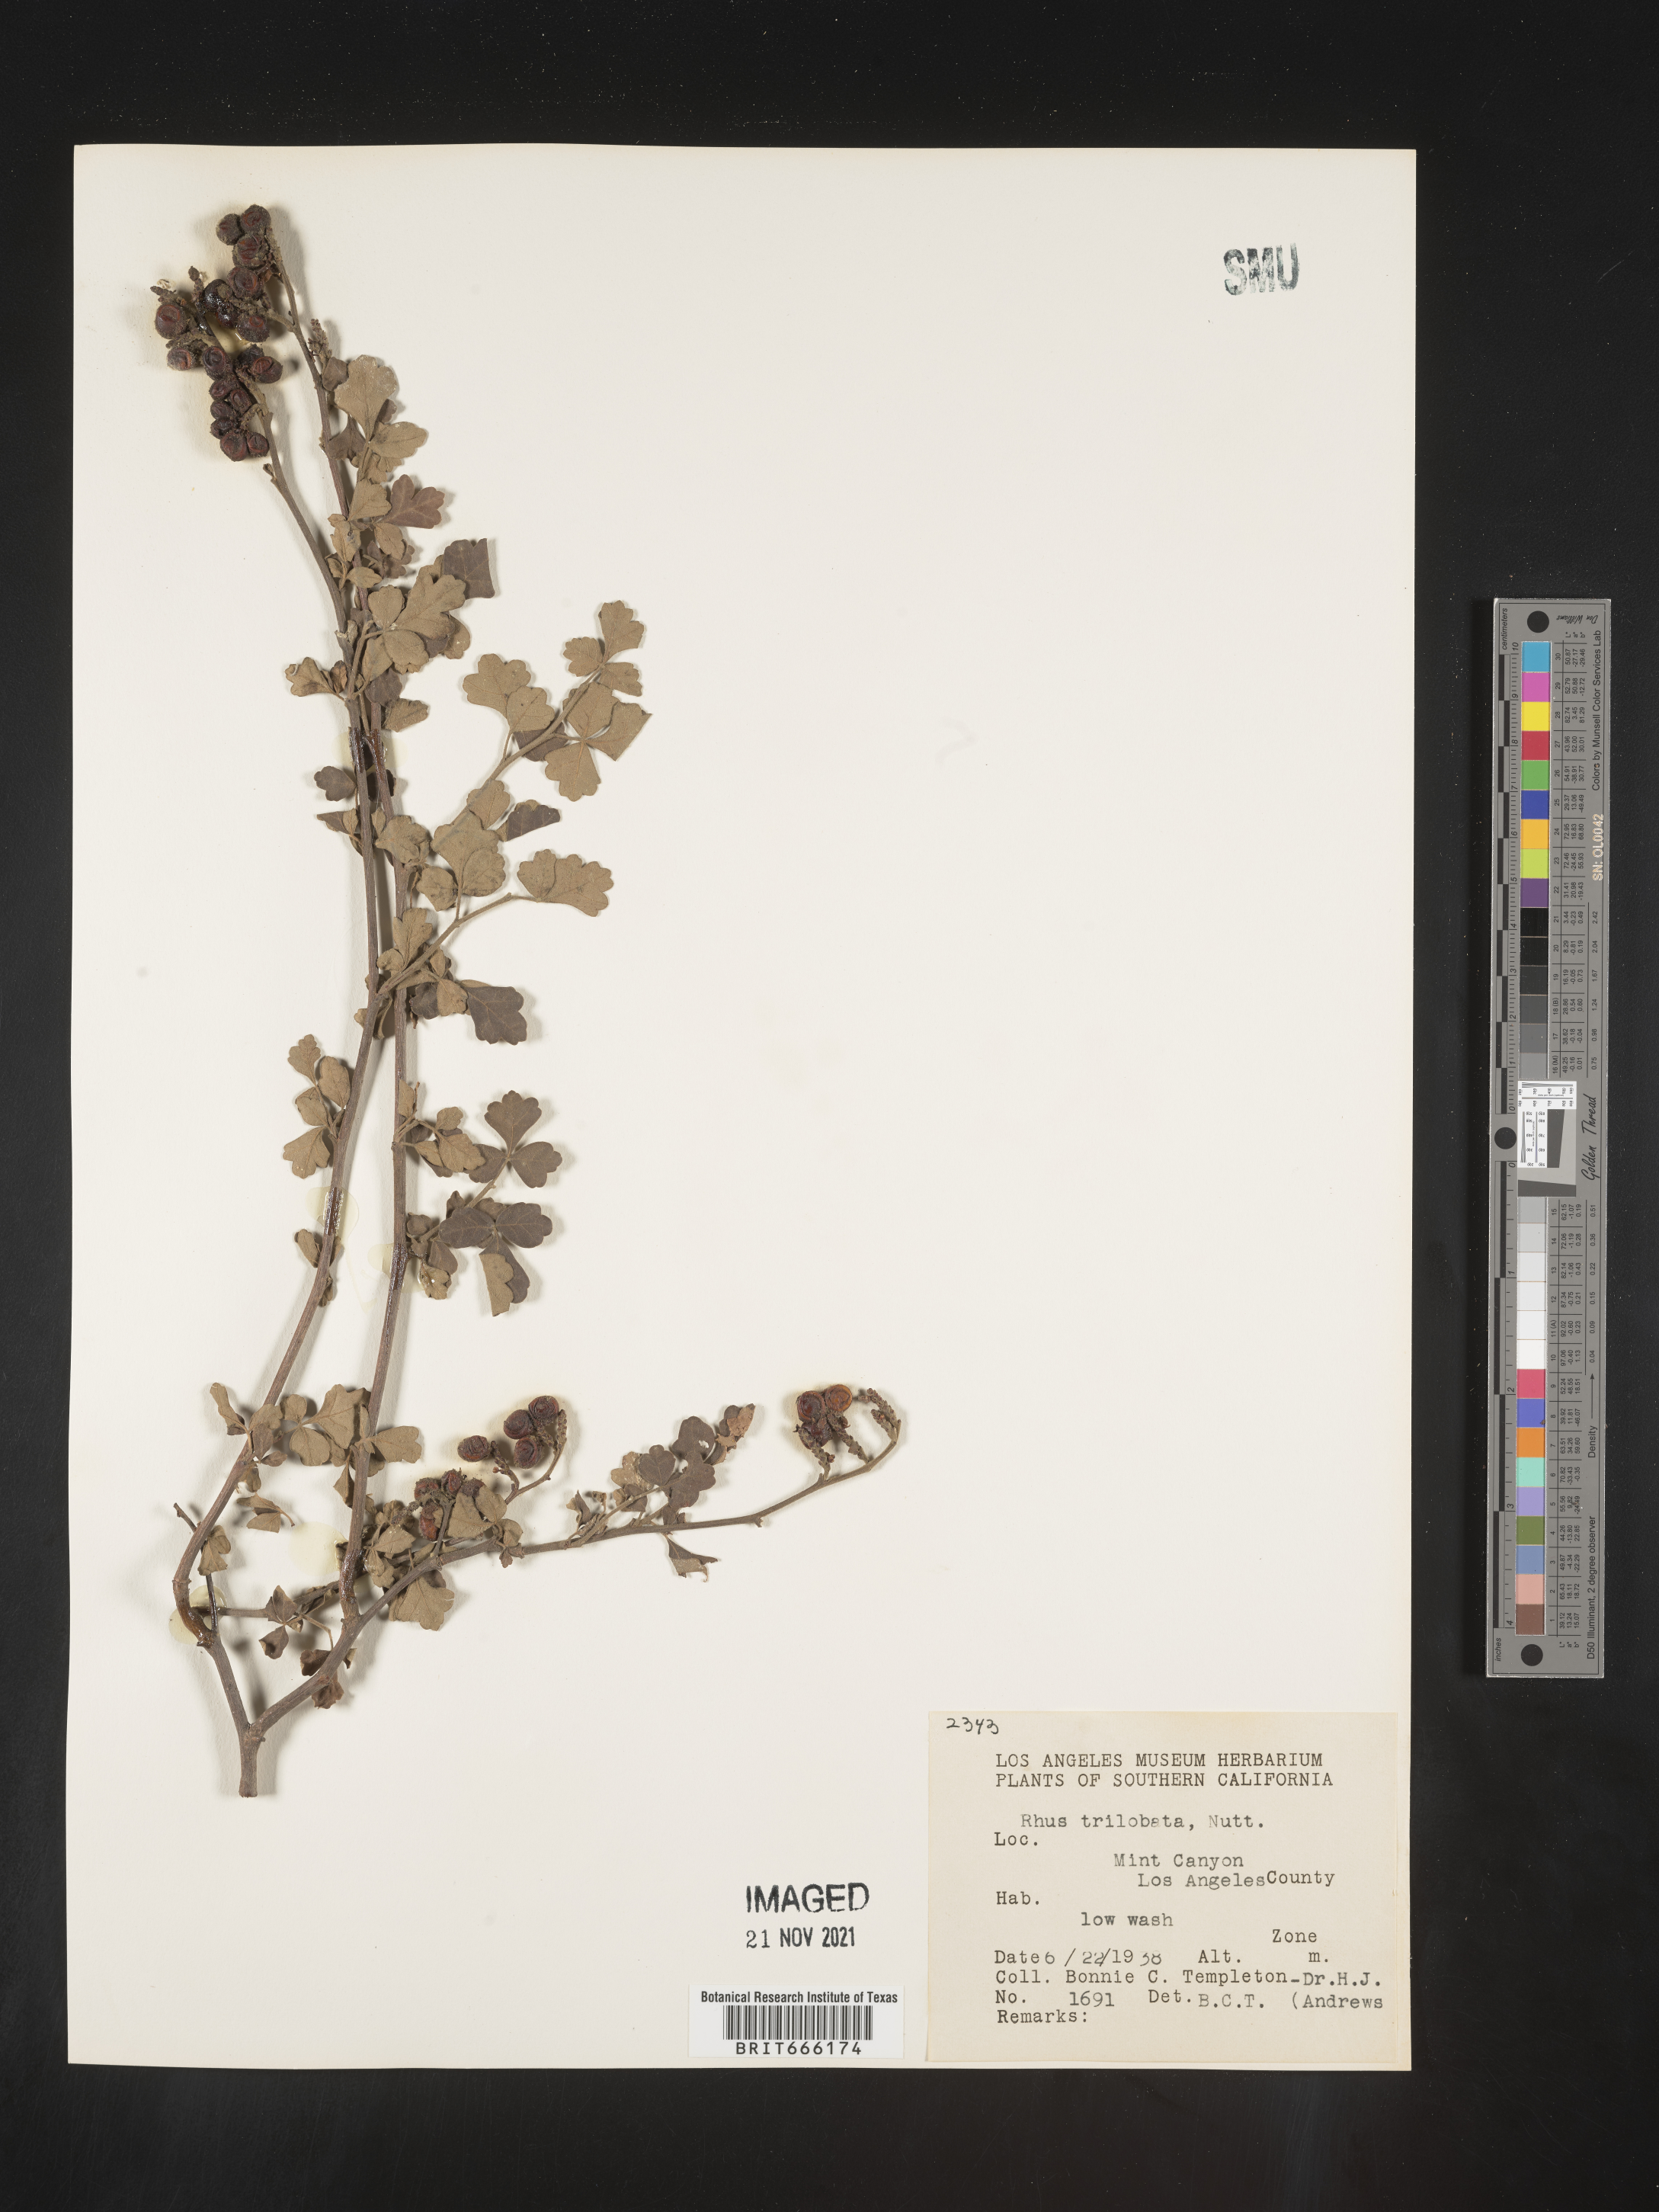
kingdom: Plantae
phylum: Tracheophyta
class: Magnoliopsida
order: Sapindales
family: Anacardiaceae
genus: Rhus
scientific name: Rhus trilobata
